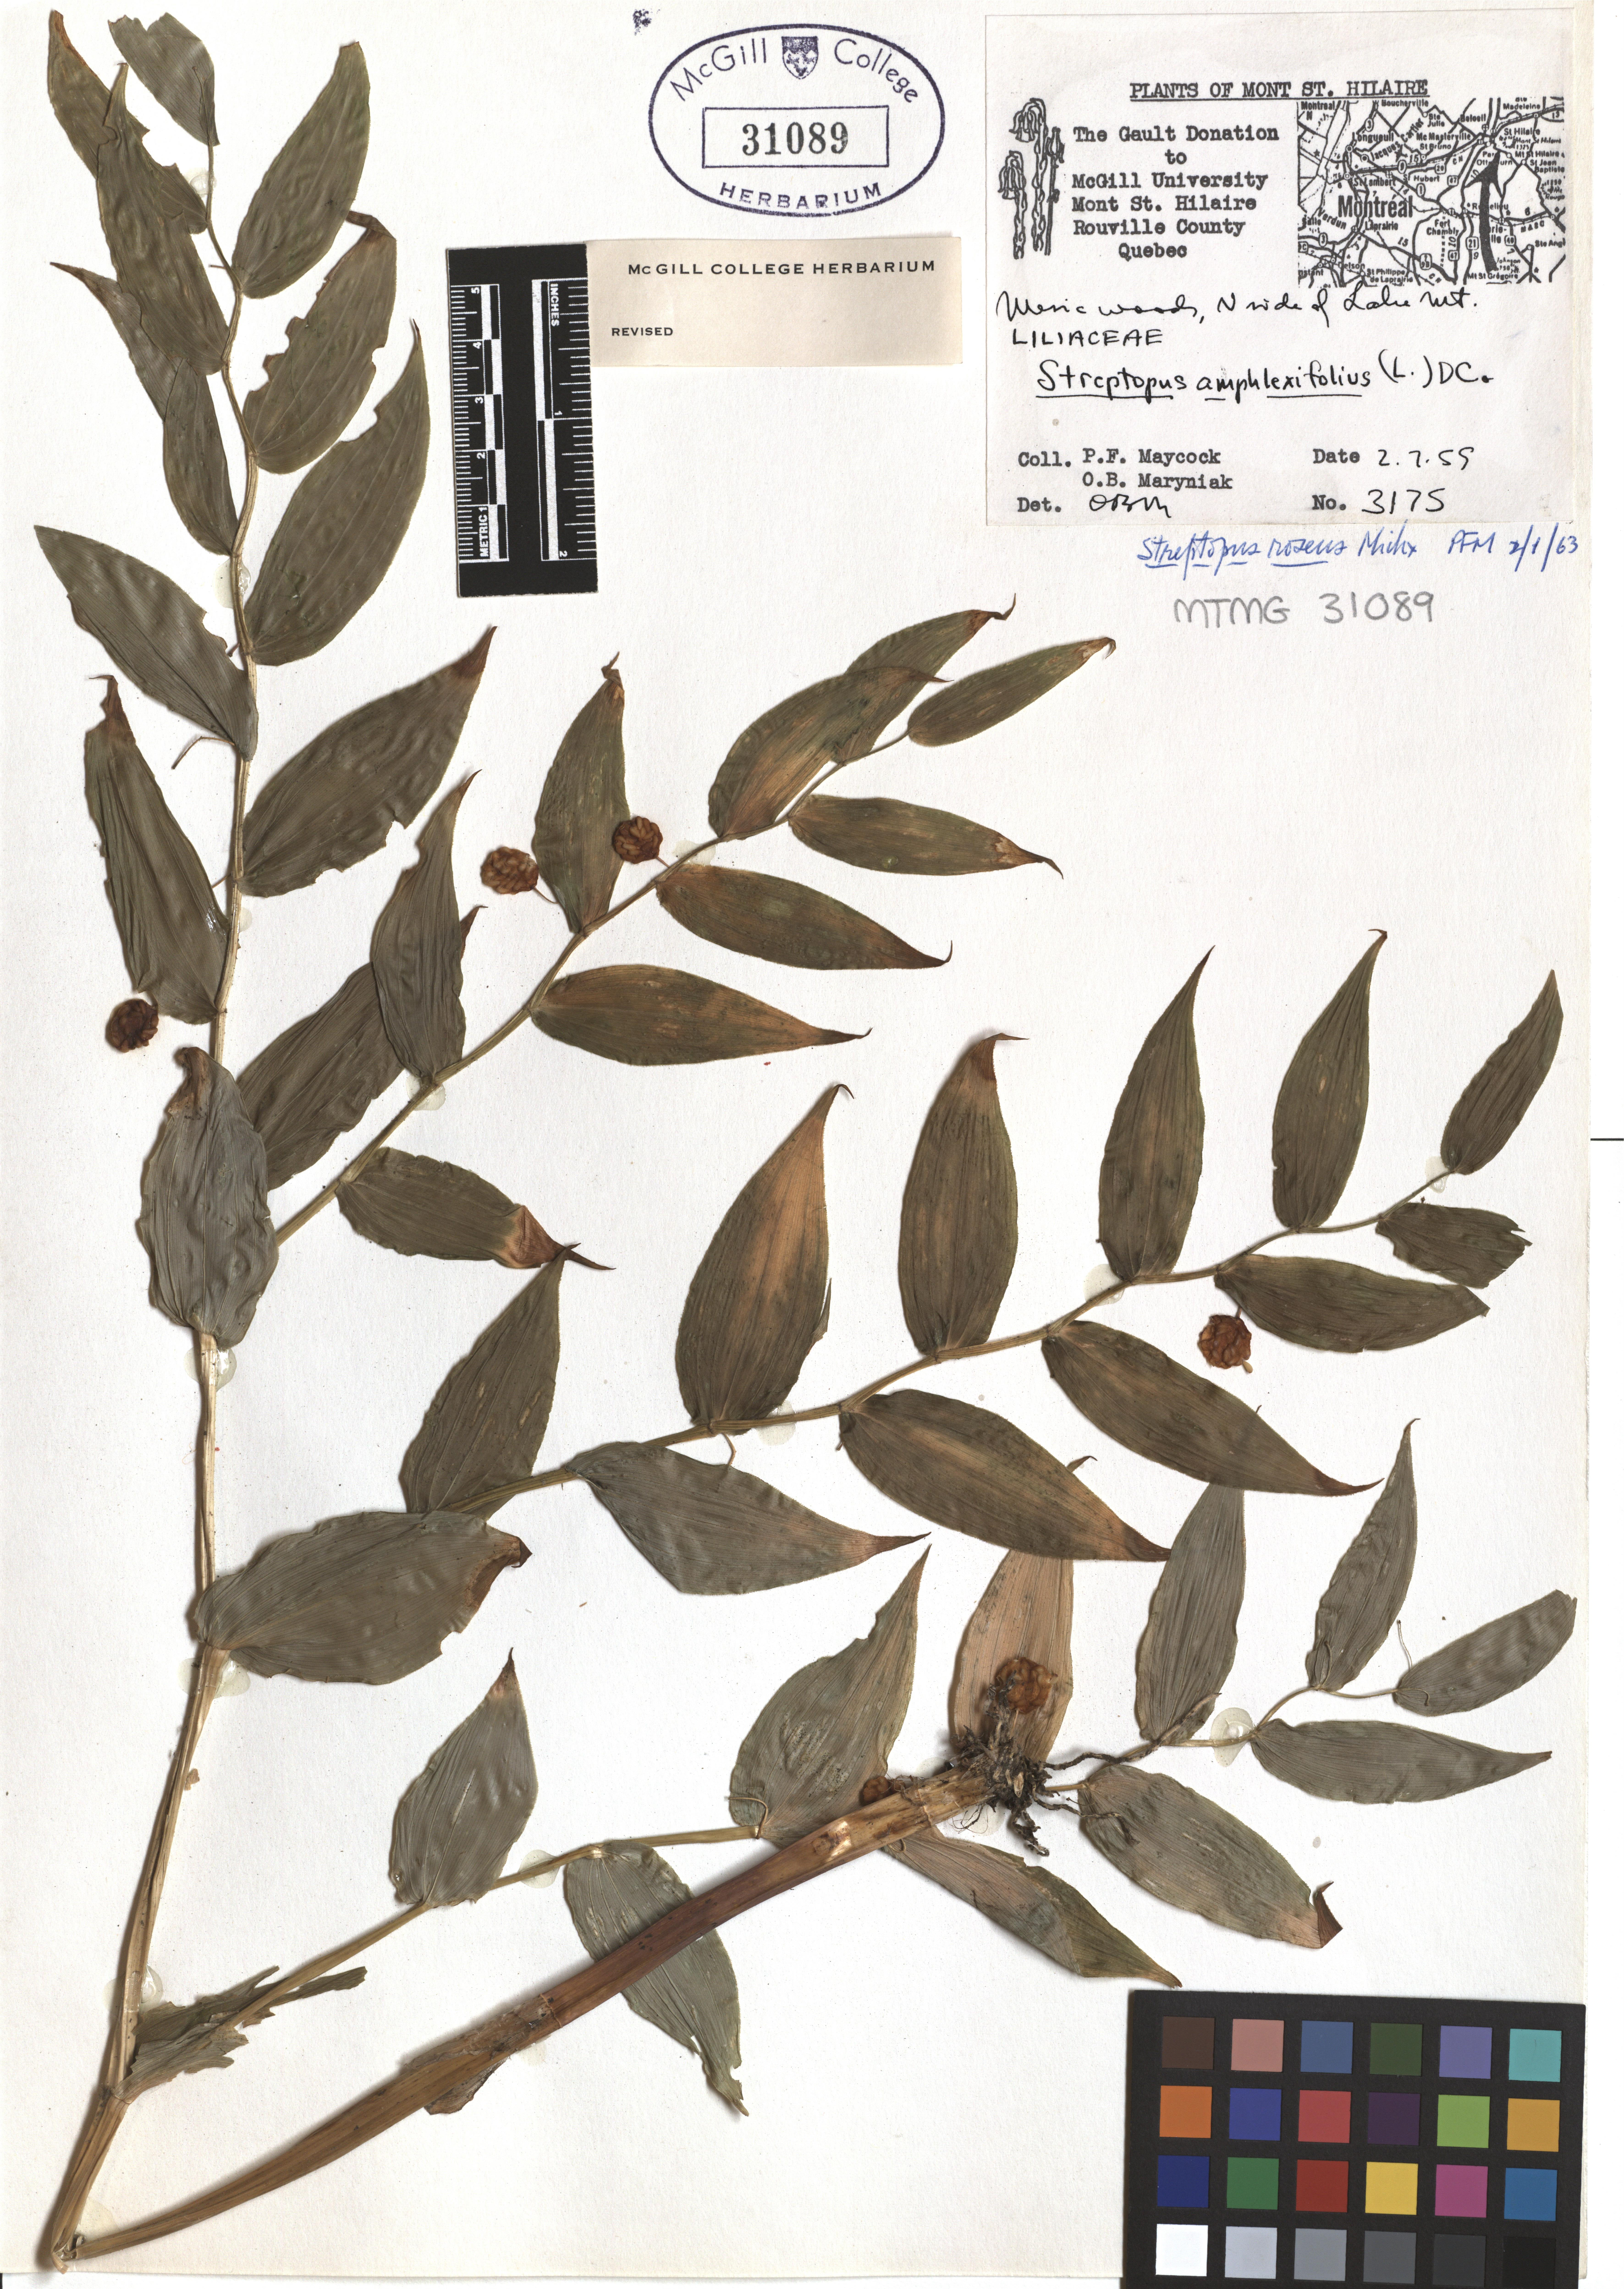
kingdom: Plantae
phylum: Tracheophyta
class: Liliopsida
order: Liliales
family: Liliaceae
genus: Streptopus
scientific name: Streptopus lanceolatus
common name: Rose mandarin
